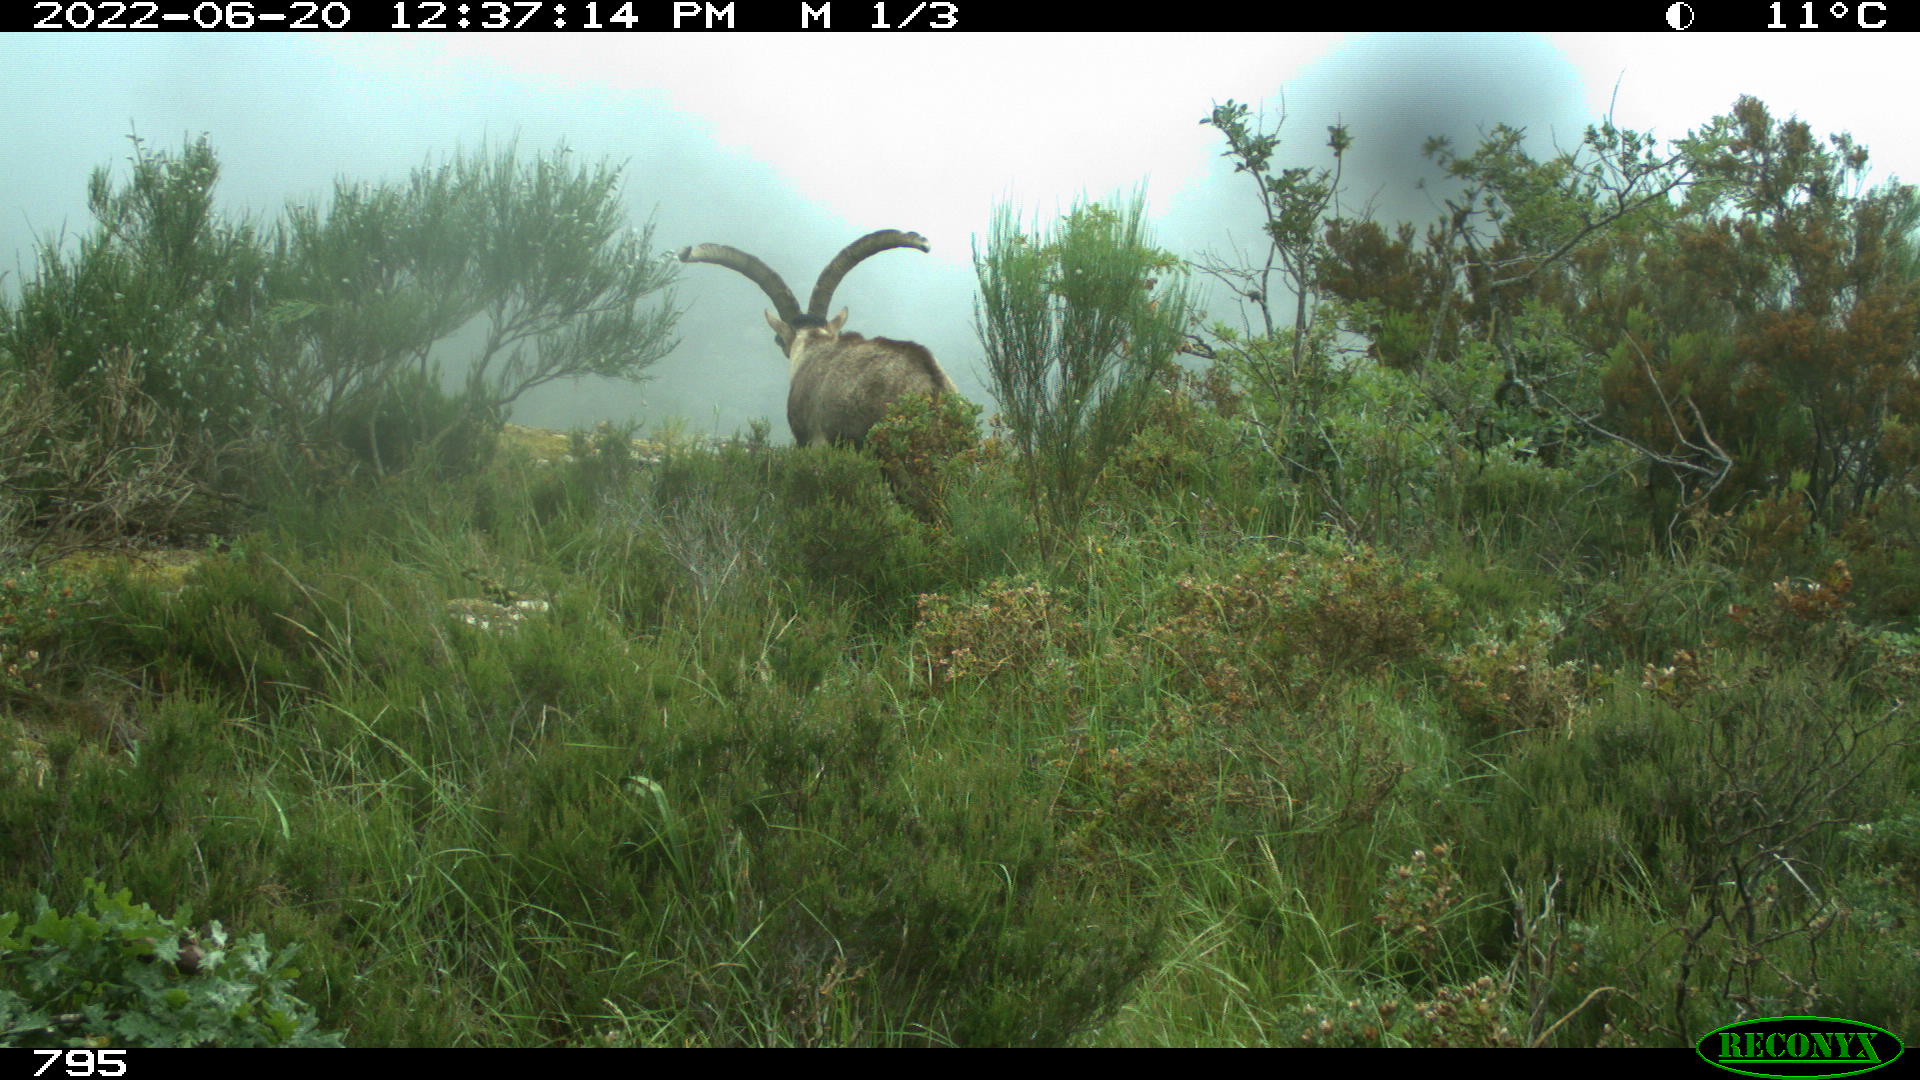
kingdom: Animalia
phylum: Chordata
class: Mammalia
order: Artiodactyla
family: Bovidae
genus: Capra
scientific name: Capra pyrenaica
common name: Spanish ibex
